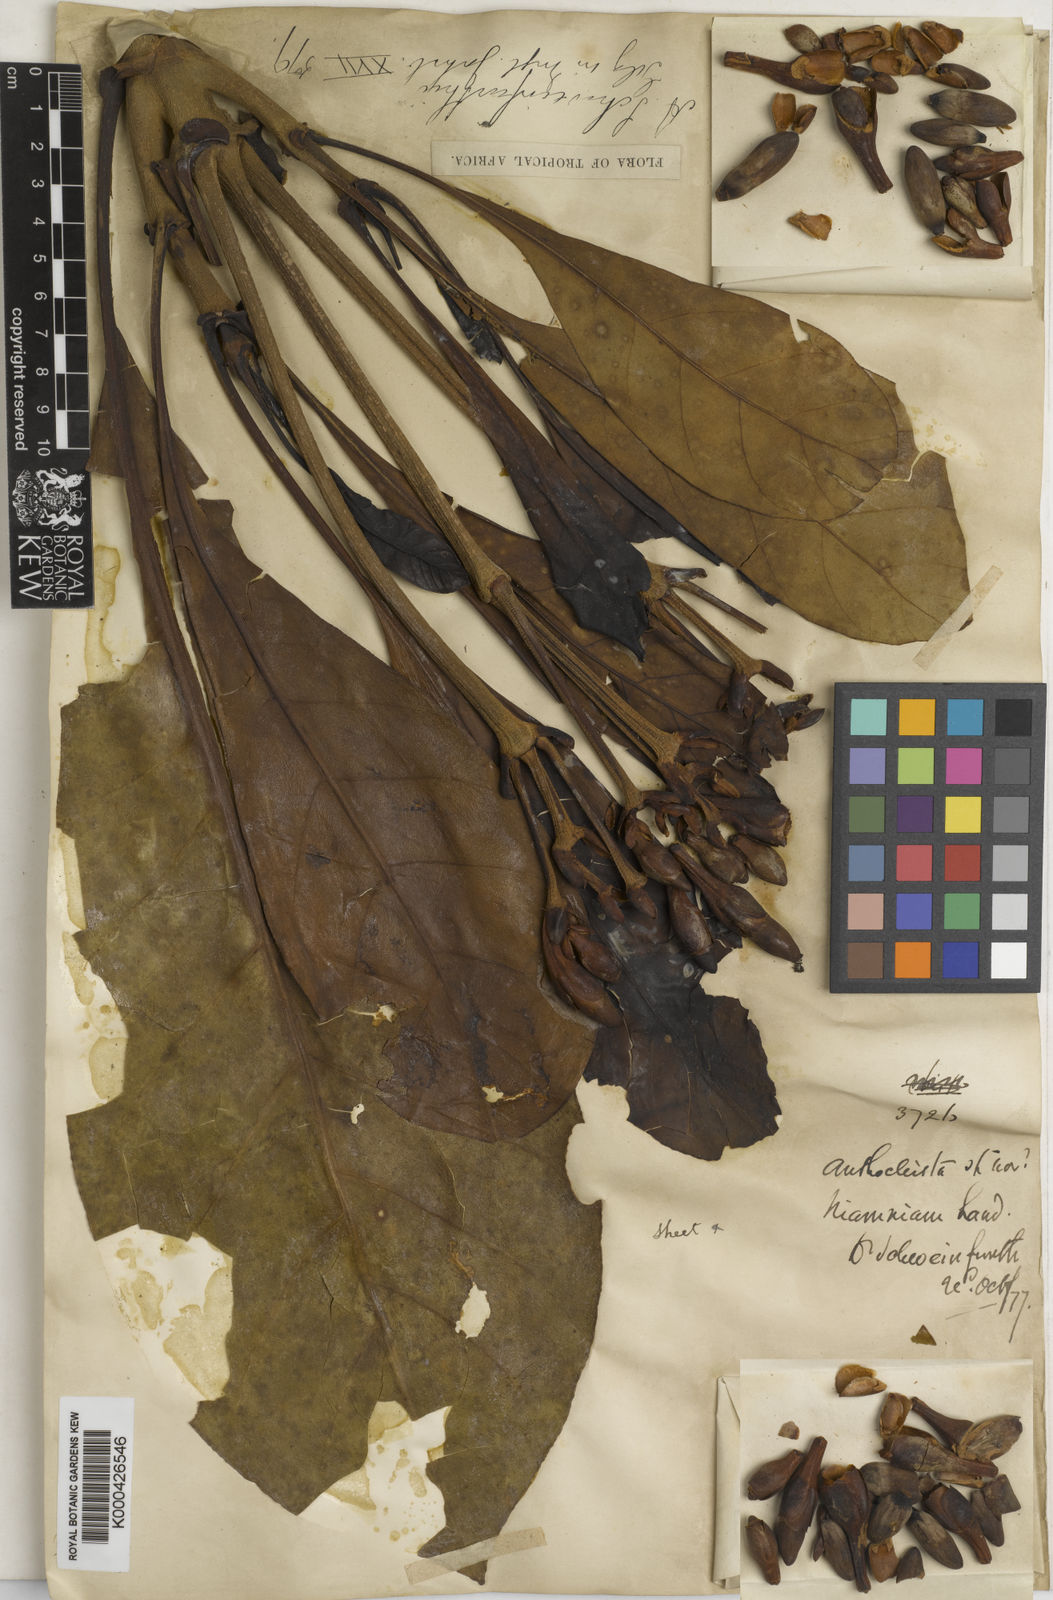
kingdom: Plantae
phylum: Tracheophyta
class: Magnoliopsida
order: Gentianales
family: Gentianaceae
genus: Anthocleista
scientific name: Anthocleista schweinfurthii
